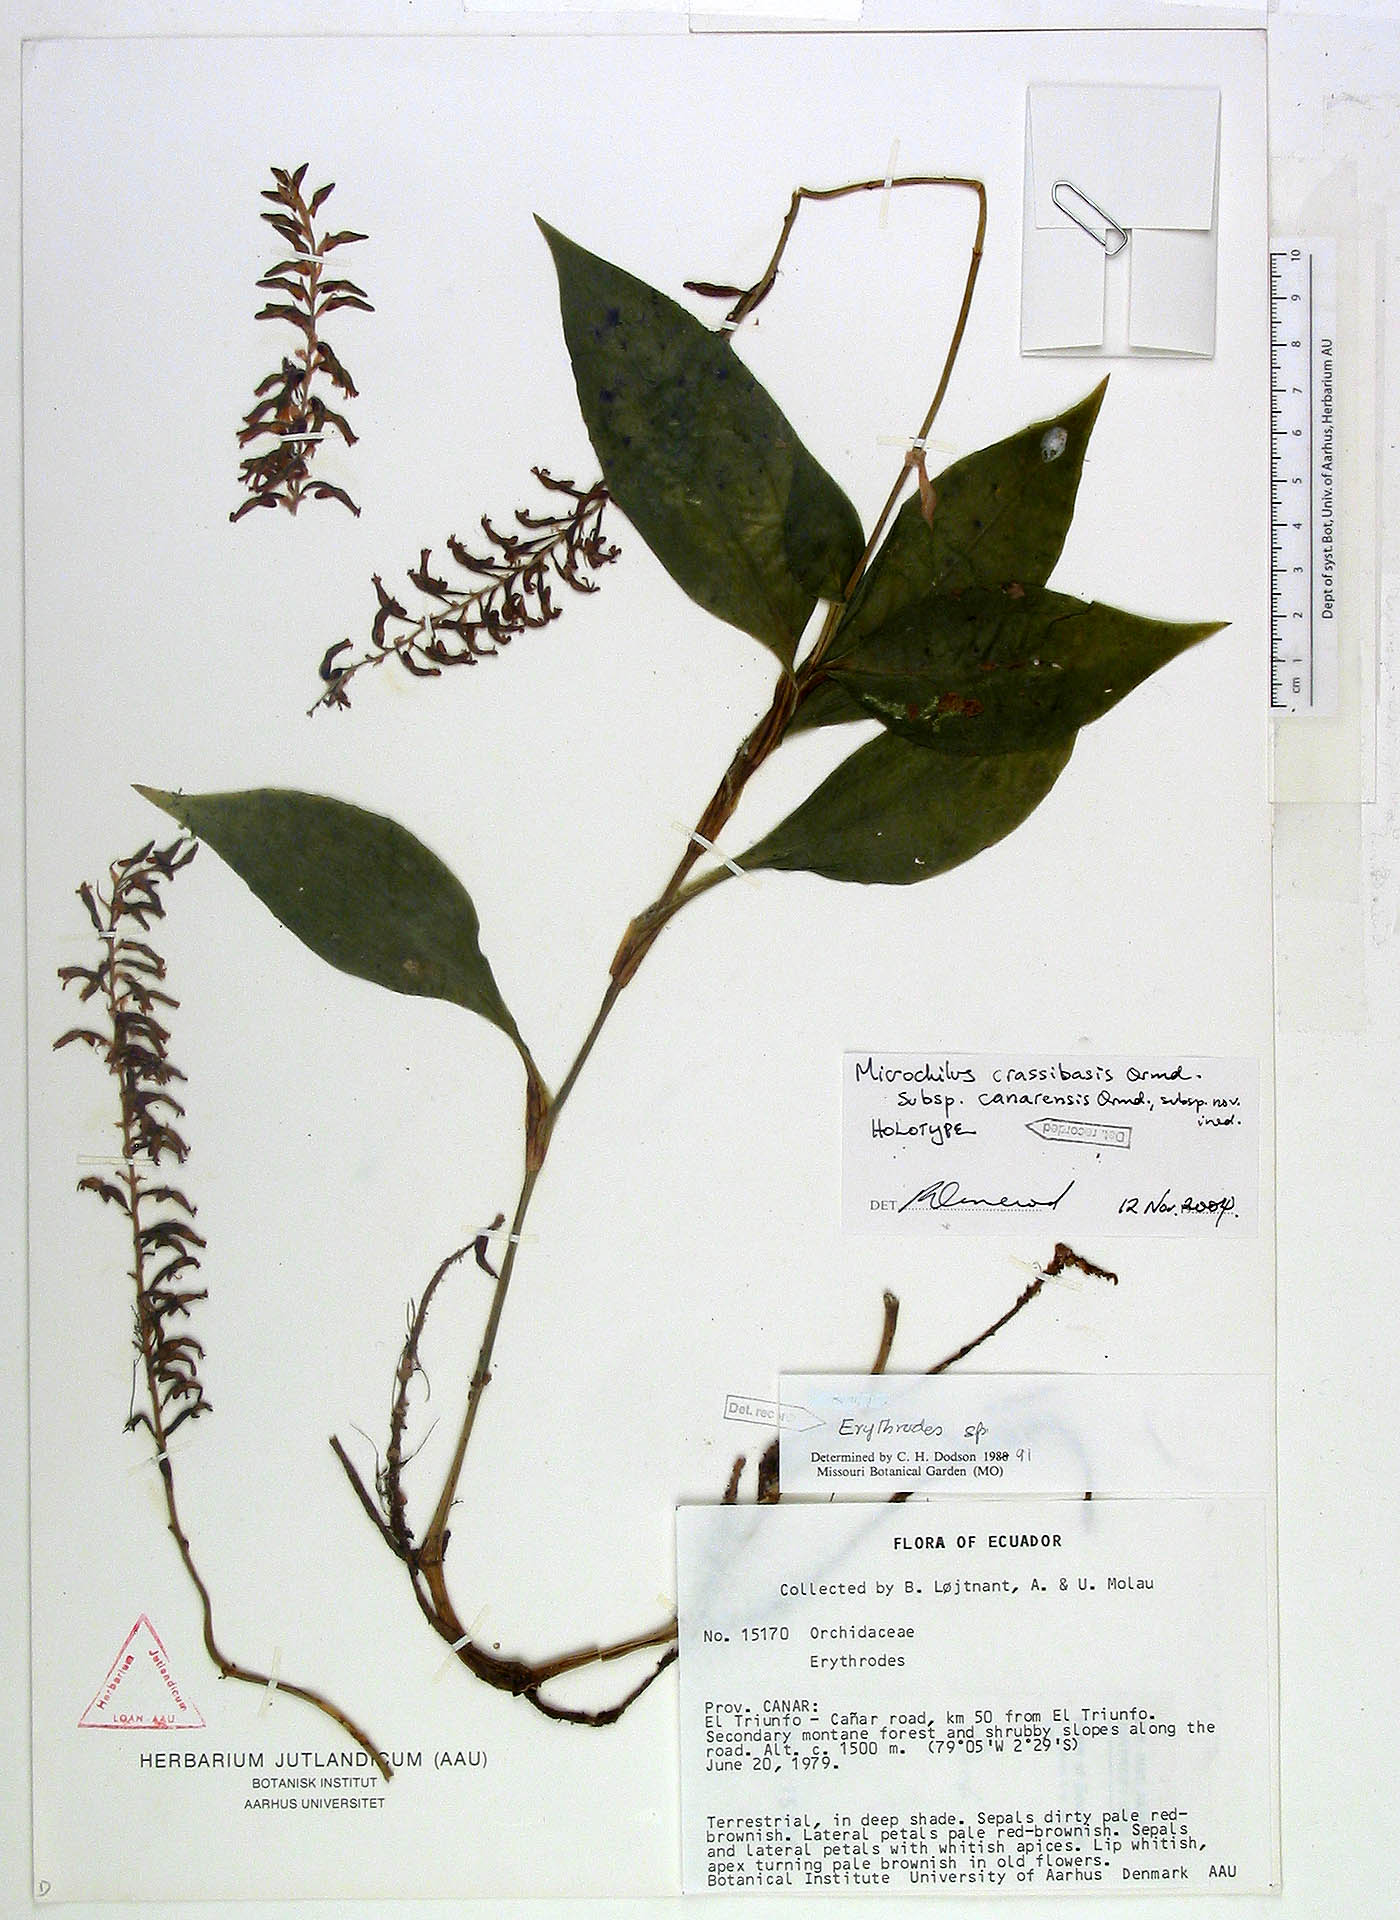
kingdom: Plantae
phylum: Tracheophyta
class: Liliopsida
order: Asparagales
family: Orchidaceae
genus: Microchilus
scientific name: Microchilus canarensis
